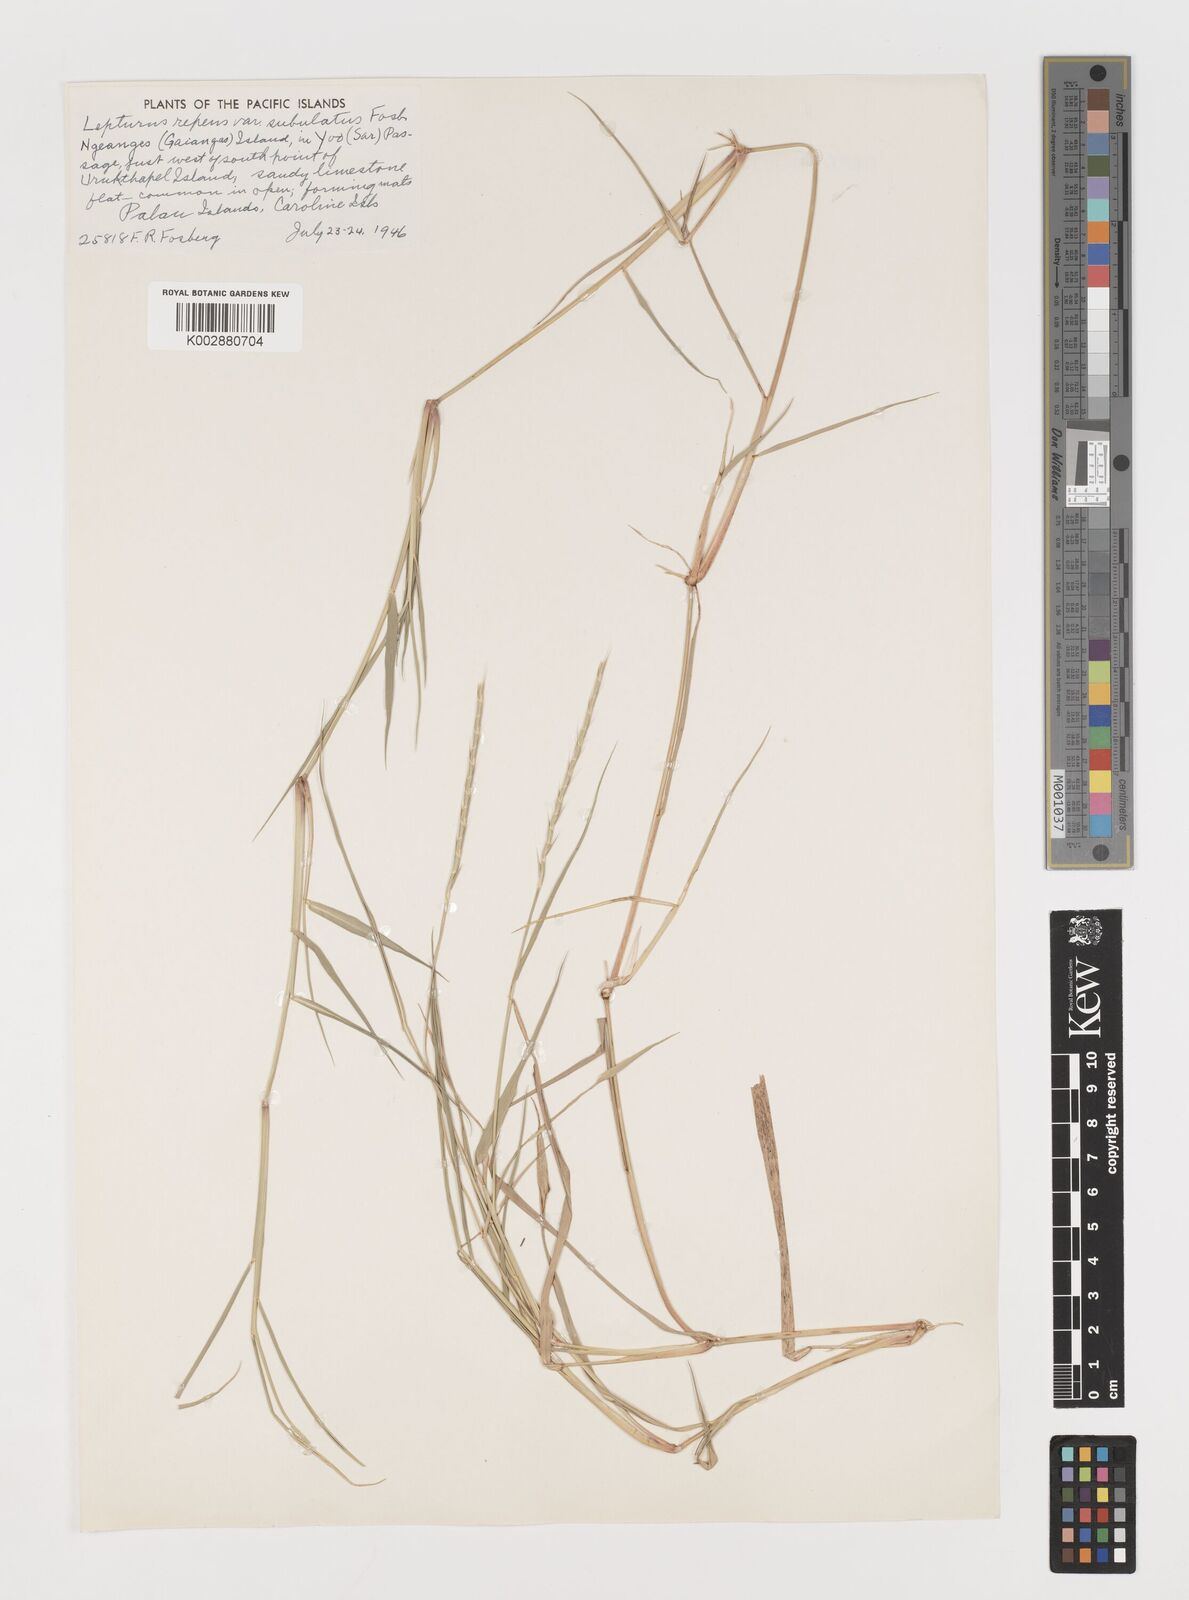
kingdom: Plantae
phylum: Tracheophyta
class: Liliopsida
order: Poales
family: Poaceae
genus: Lepturus
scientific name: Lepturus repens
